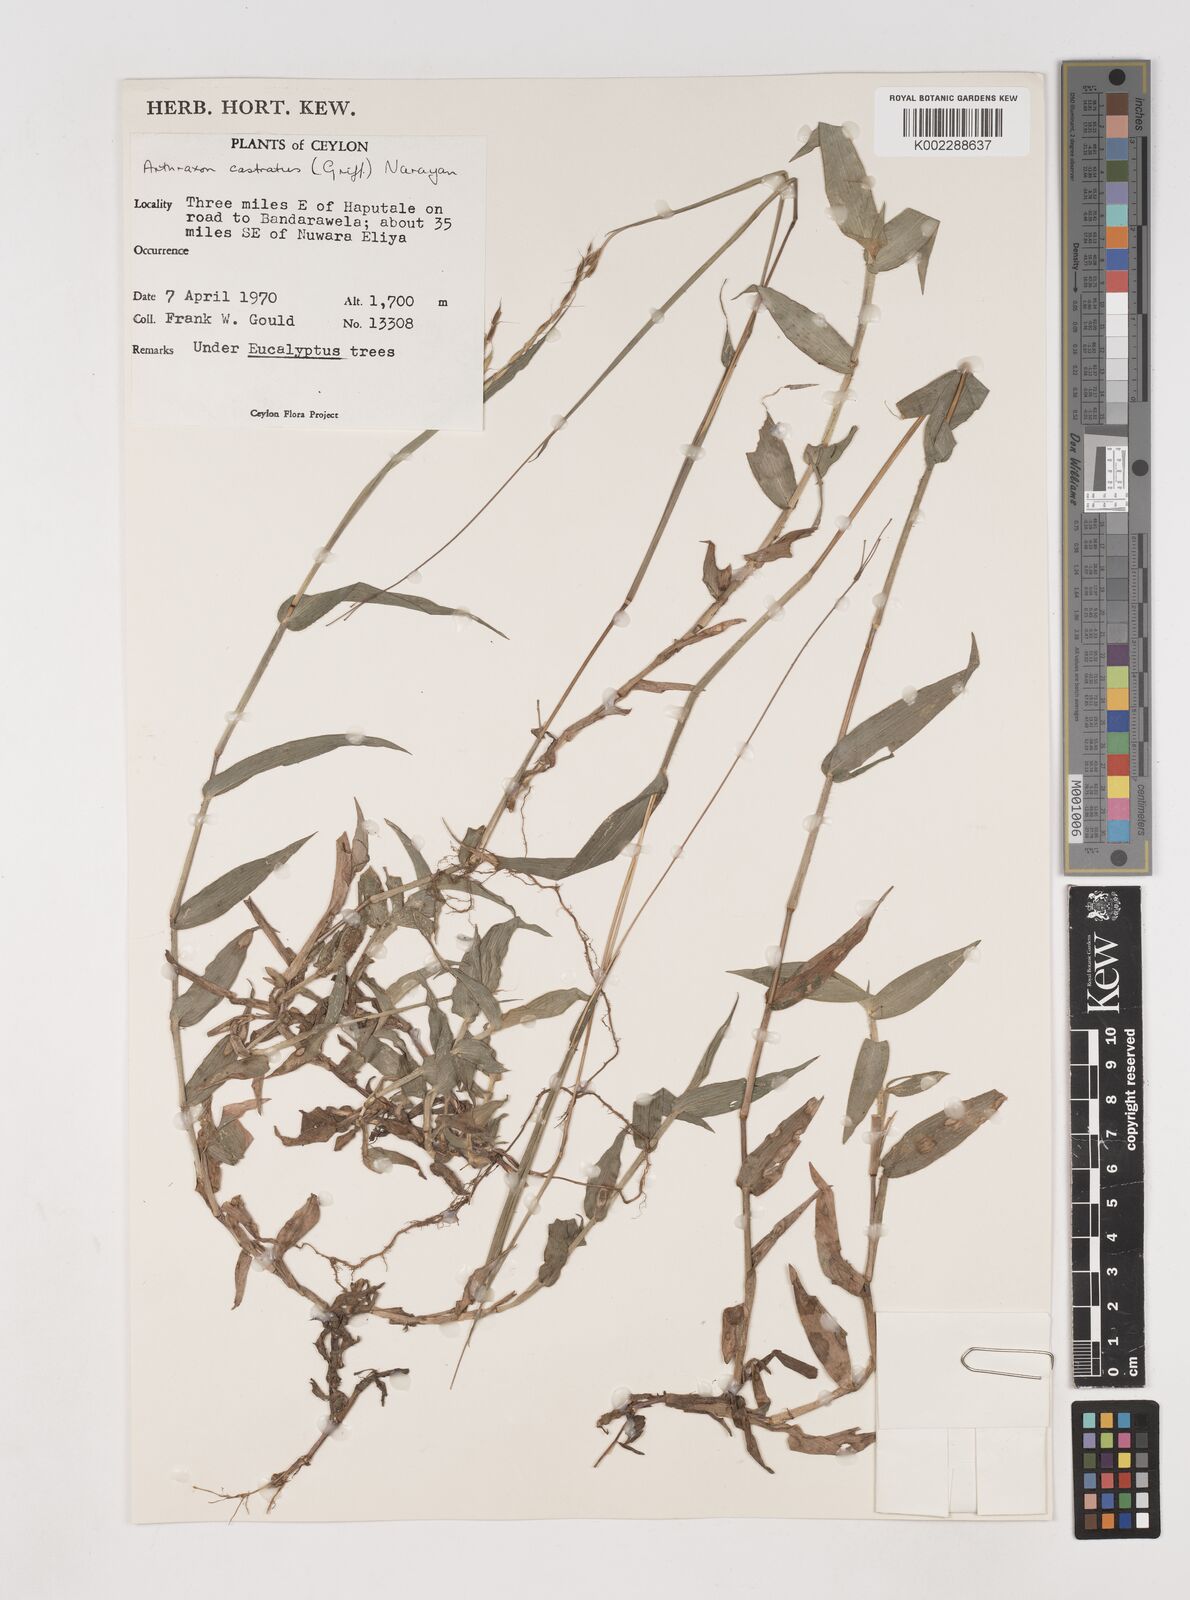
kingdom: Plantae
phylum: Tracheophyta
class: Liliopsida
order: Poales
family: Poaceae
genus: Arthraxon
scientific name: Arthraxon castratus
